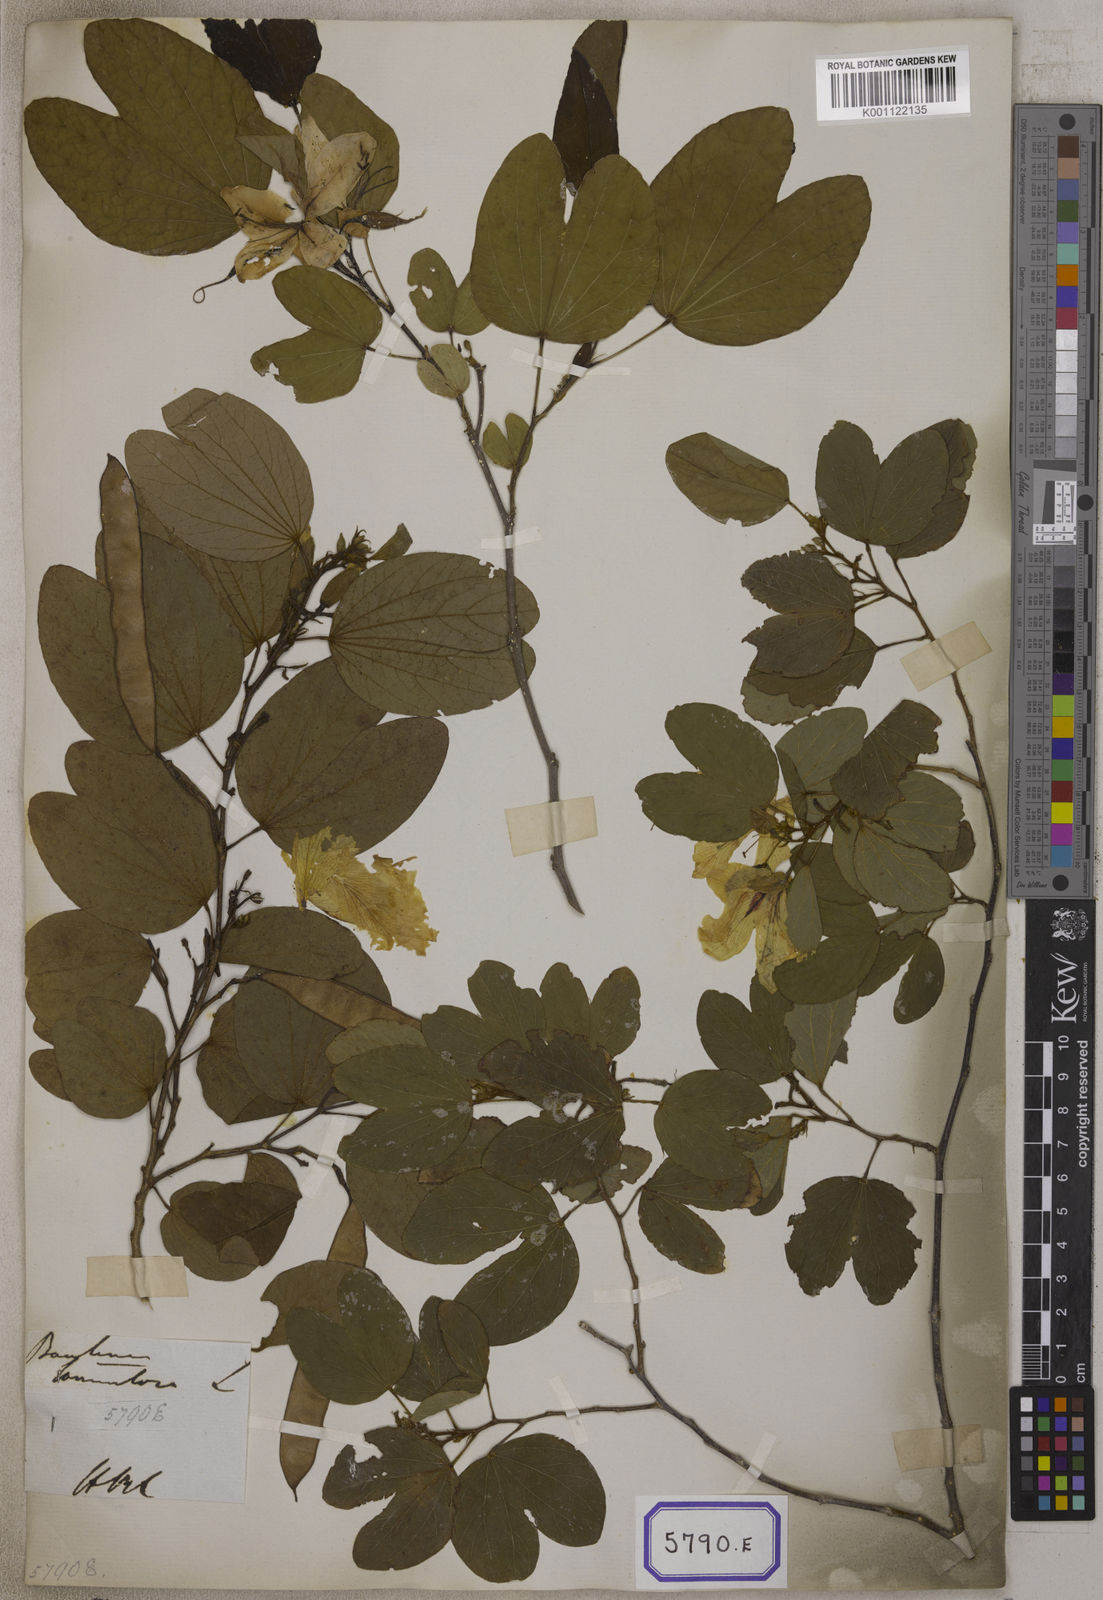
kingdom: Plantae
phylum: Tracheophyta
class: Magnoliopsida
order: Fabales
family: Fabaceae
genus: Bauhinia
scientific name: Bauhinia tomentosa
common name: Bell bauhinia
